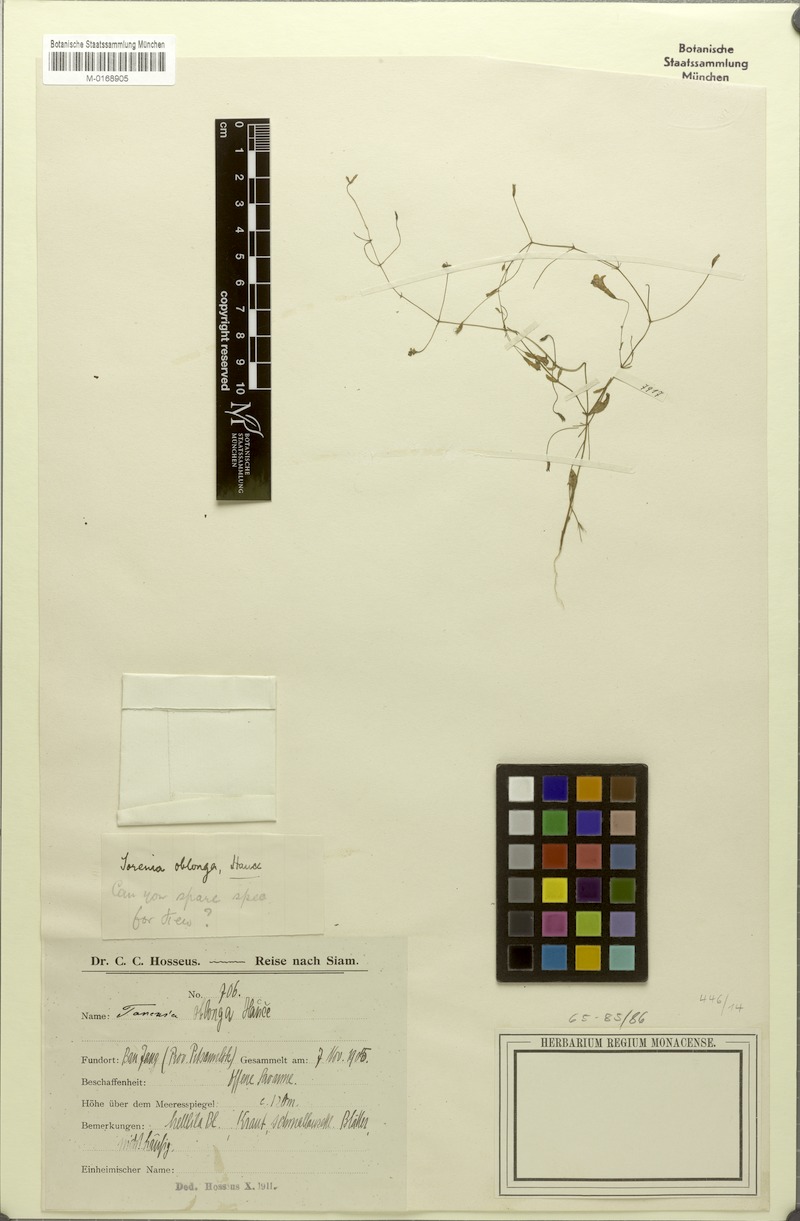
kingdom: Plantae
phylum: Tracheophyta
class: Magnoliopsida
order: Lamiales
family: Linderniaceae
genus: Torenia
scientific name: Torenia oblonga
